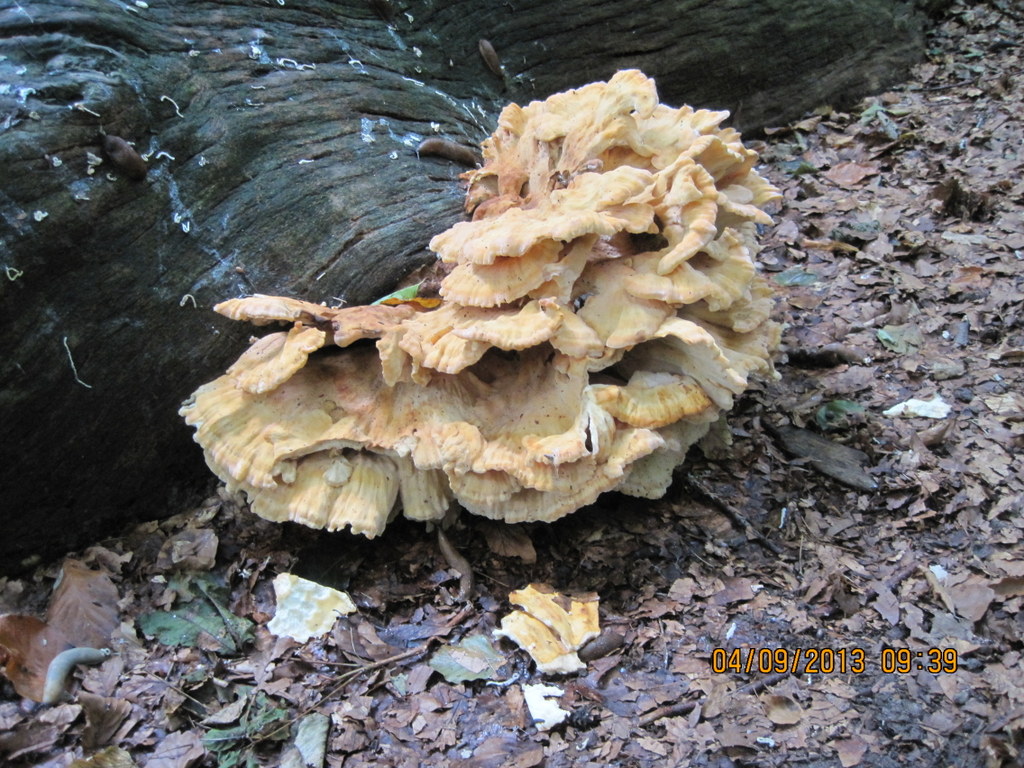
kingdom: Fungi
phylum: Basidiomycota
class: Agaricomycetes
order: Polyporales
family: Laetiporaceae
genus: Laetiporus
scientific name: Laetiporus sulphureus
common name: svovlporesvamp
